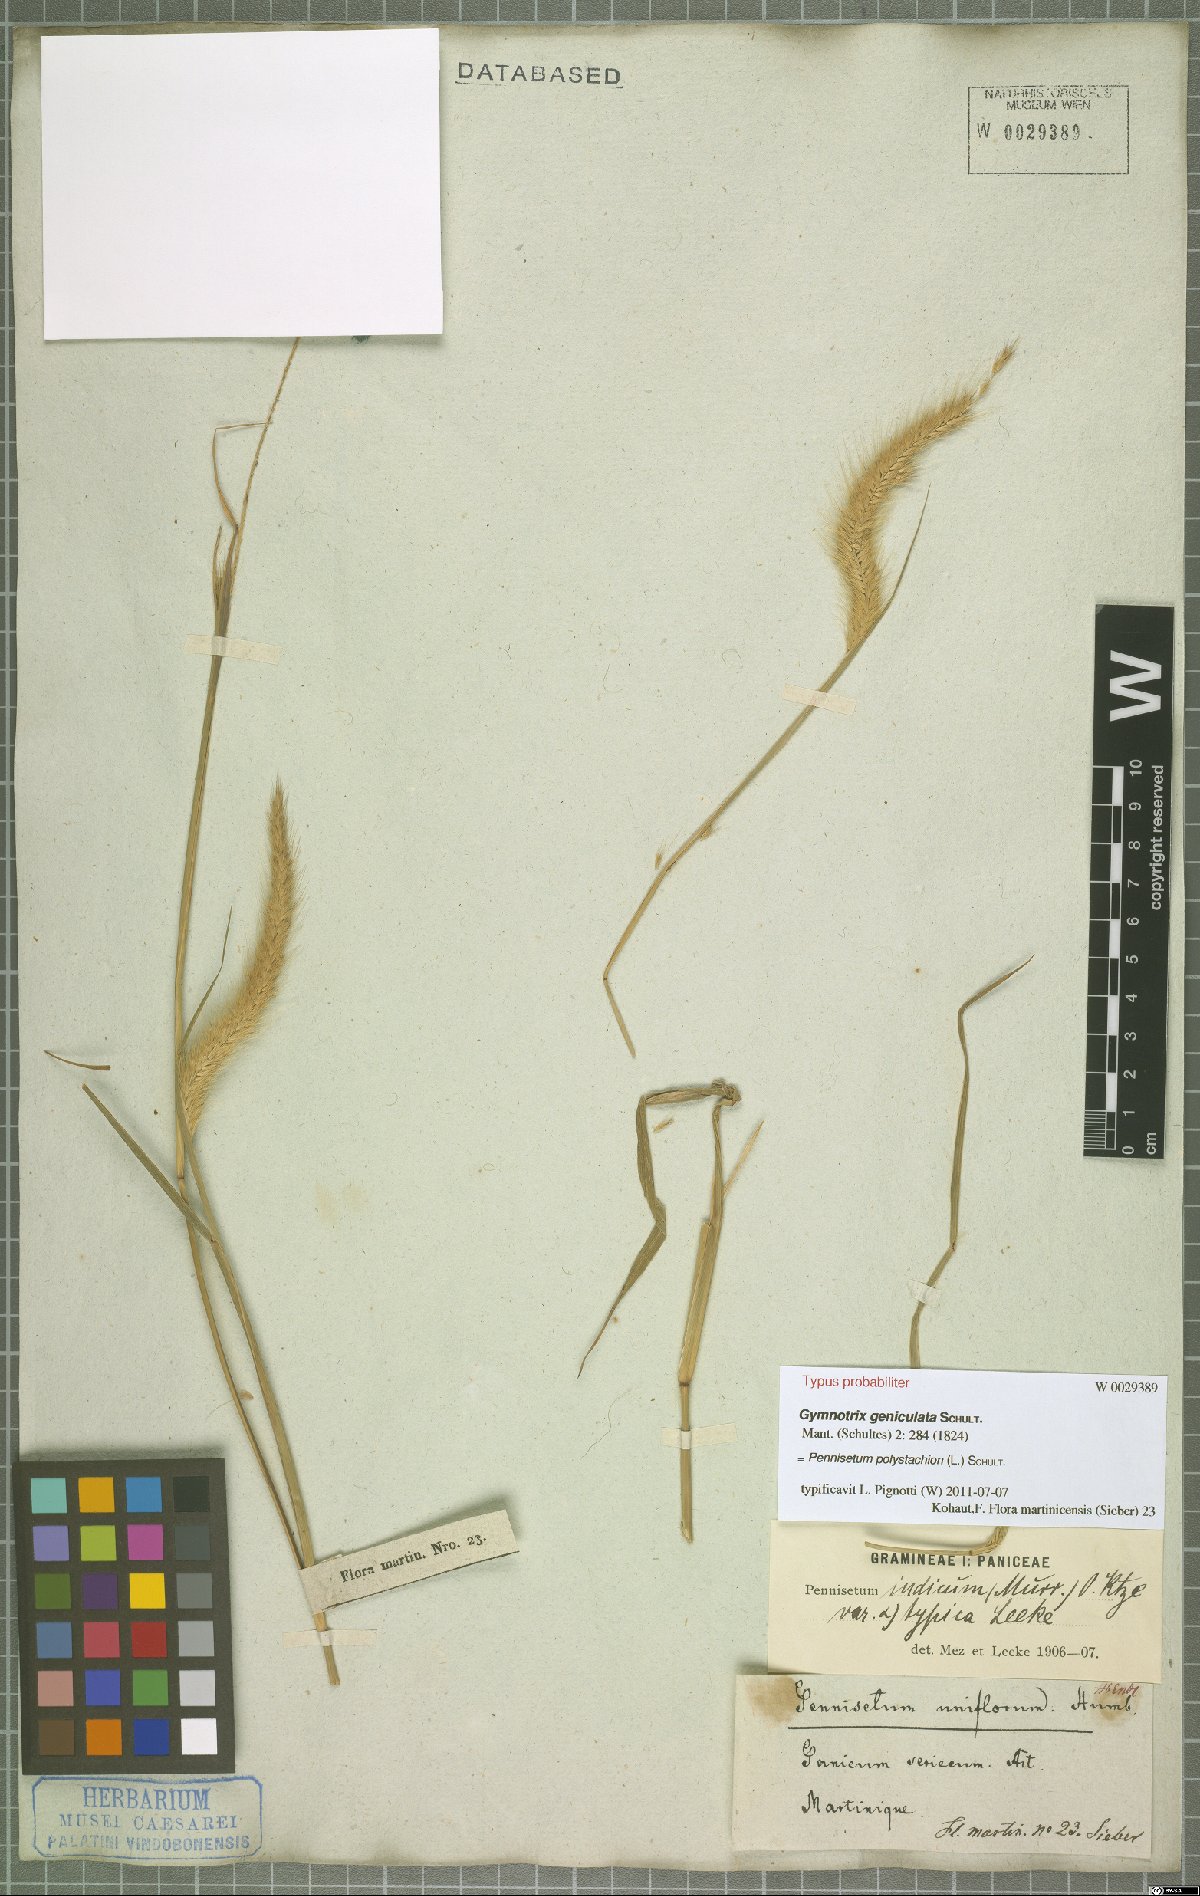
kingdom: Plantae
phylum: Tracheophyta
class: Liliopsida
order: Poales
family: Poaceae
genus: Setaria
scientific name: Setaria parviflora
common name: Knotroot bristle-grass
